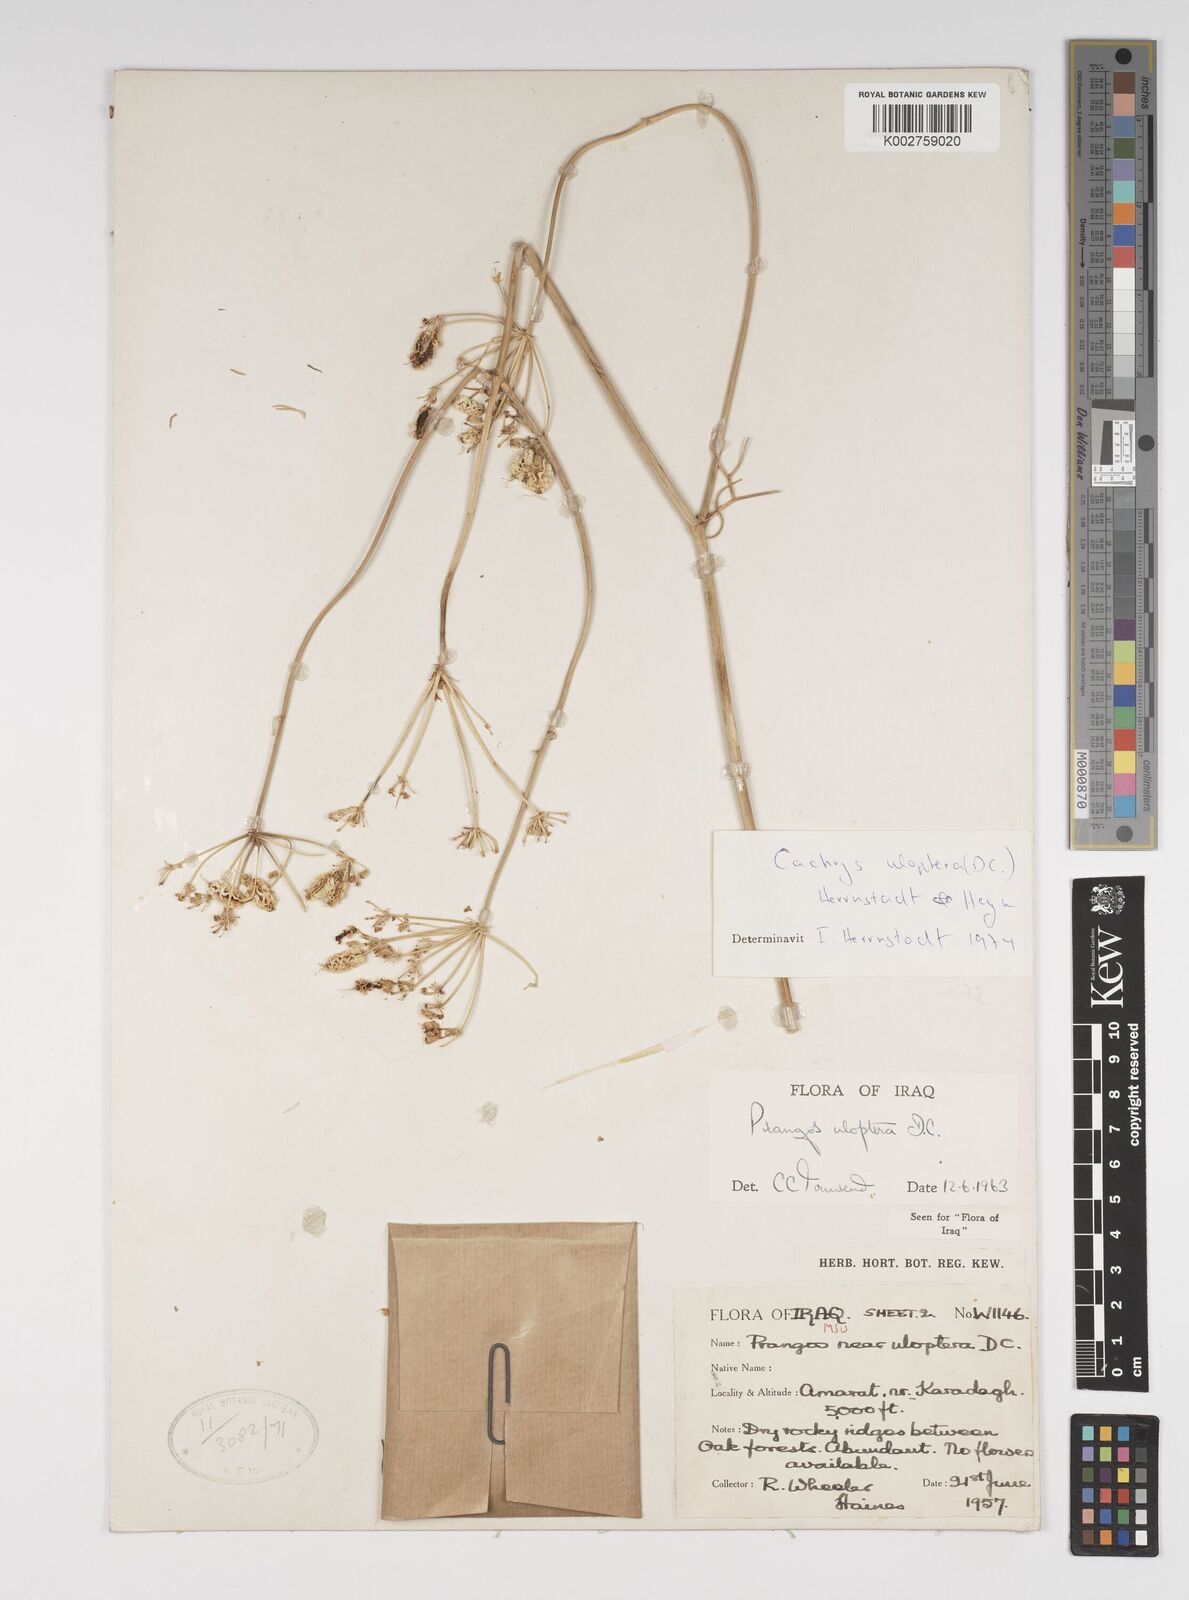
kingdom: Plantae
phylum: Tracheophyta
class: Magnoliopsida
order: Apiales
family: Apiaceae
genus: Prangos
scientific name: Prangos uloptera
